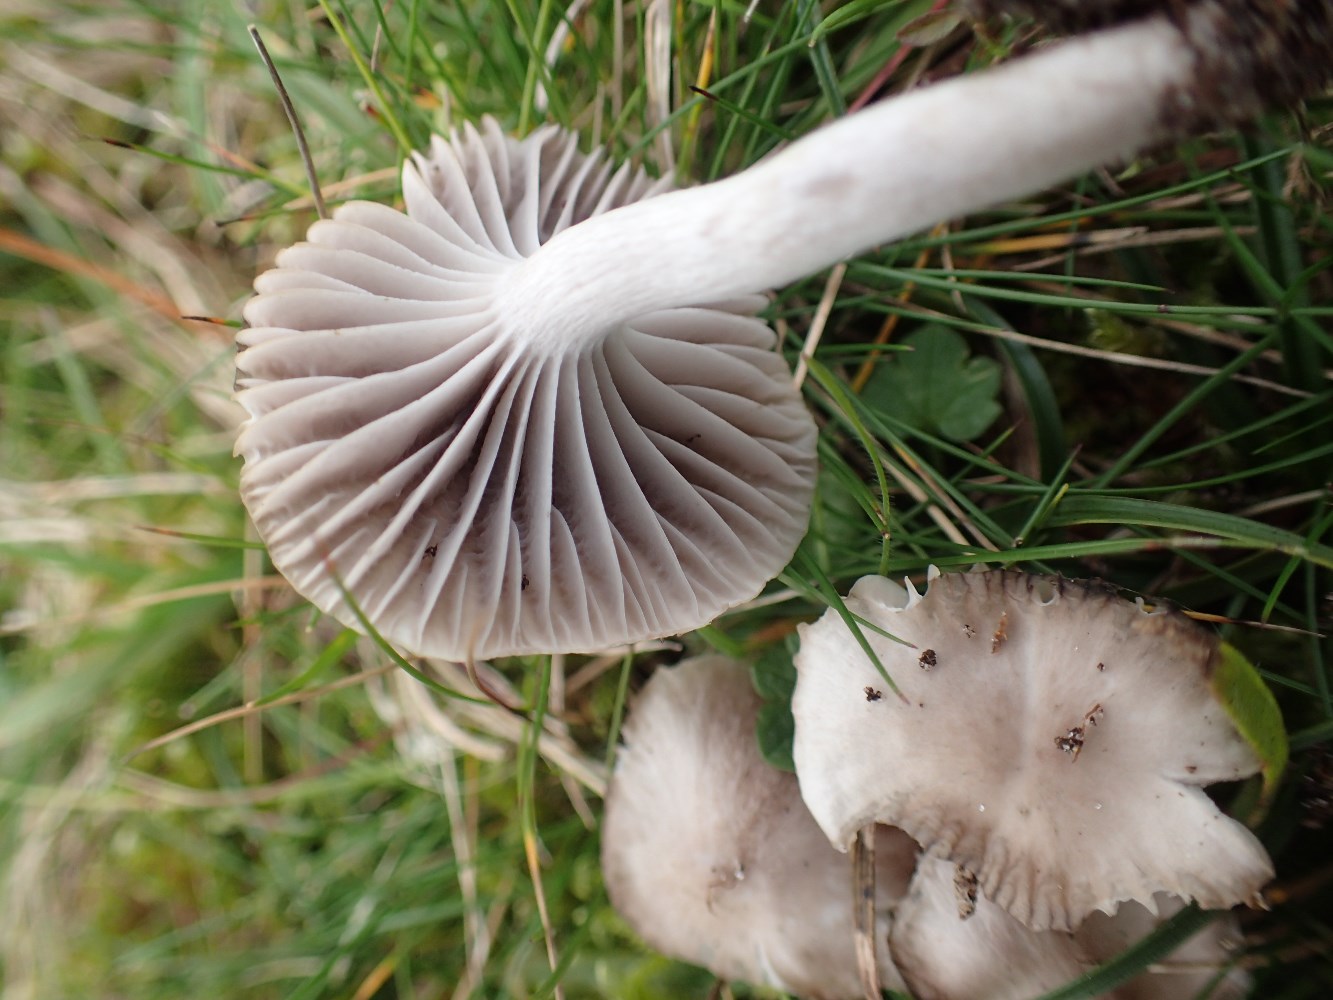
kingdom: Fungi
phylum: Basidiomycota
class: Agaricomycetes
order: Agaricales
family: Hygrophoraceae
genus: Cuphophyllus
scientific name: Cuphophyllus
